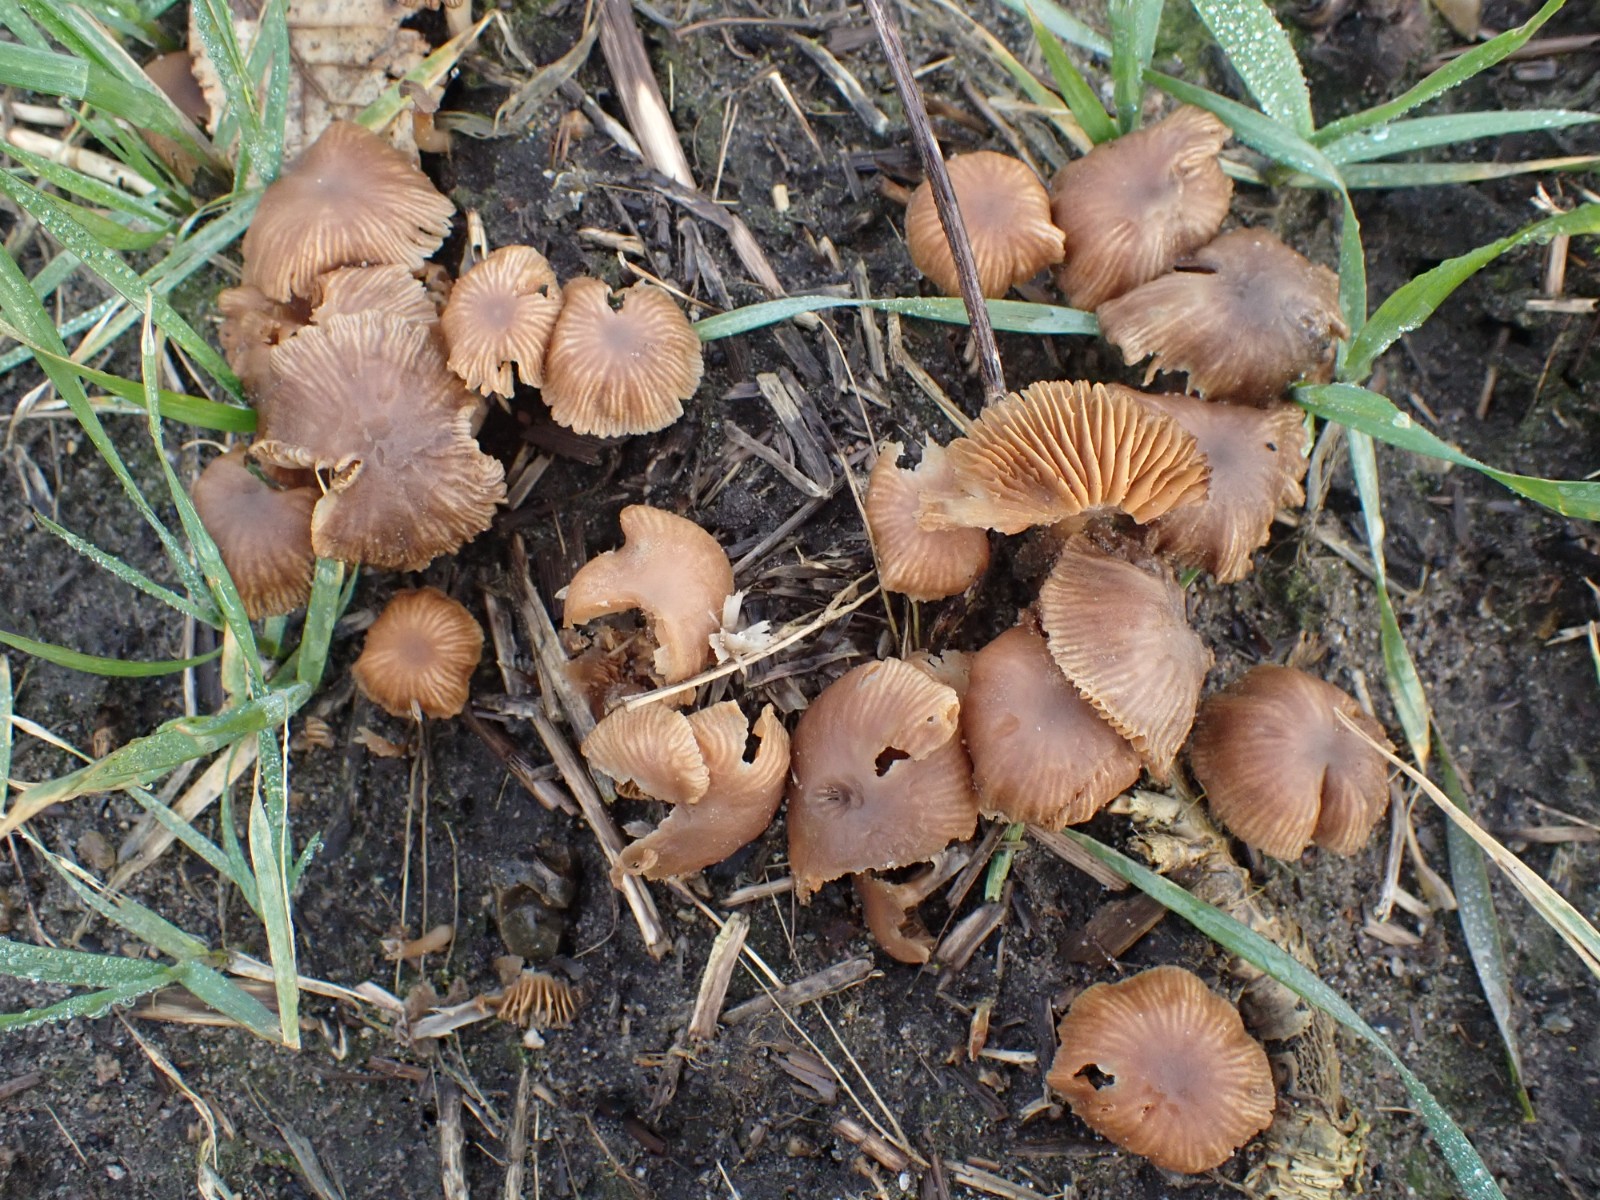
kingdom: Fungi
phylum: Basidiomycota
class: Agaricomycetes
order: Agaricales
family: Tubariaceae
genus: Tubaria
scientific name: Tubaria furfuracea
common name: kliddet fnughat
